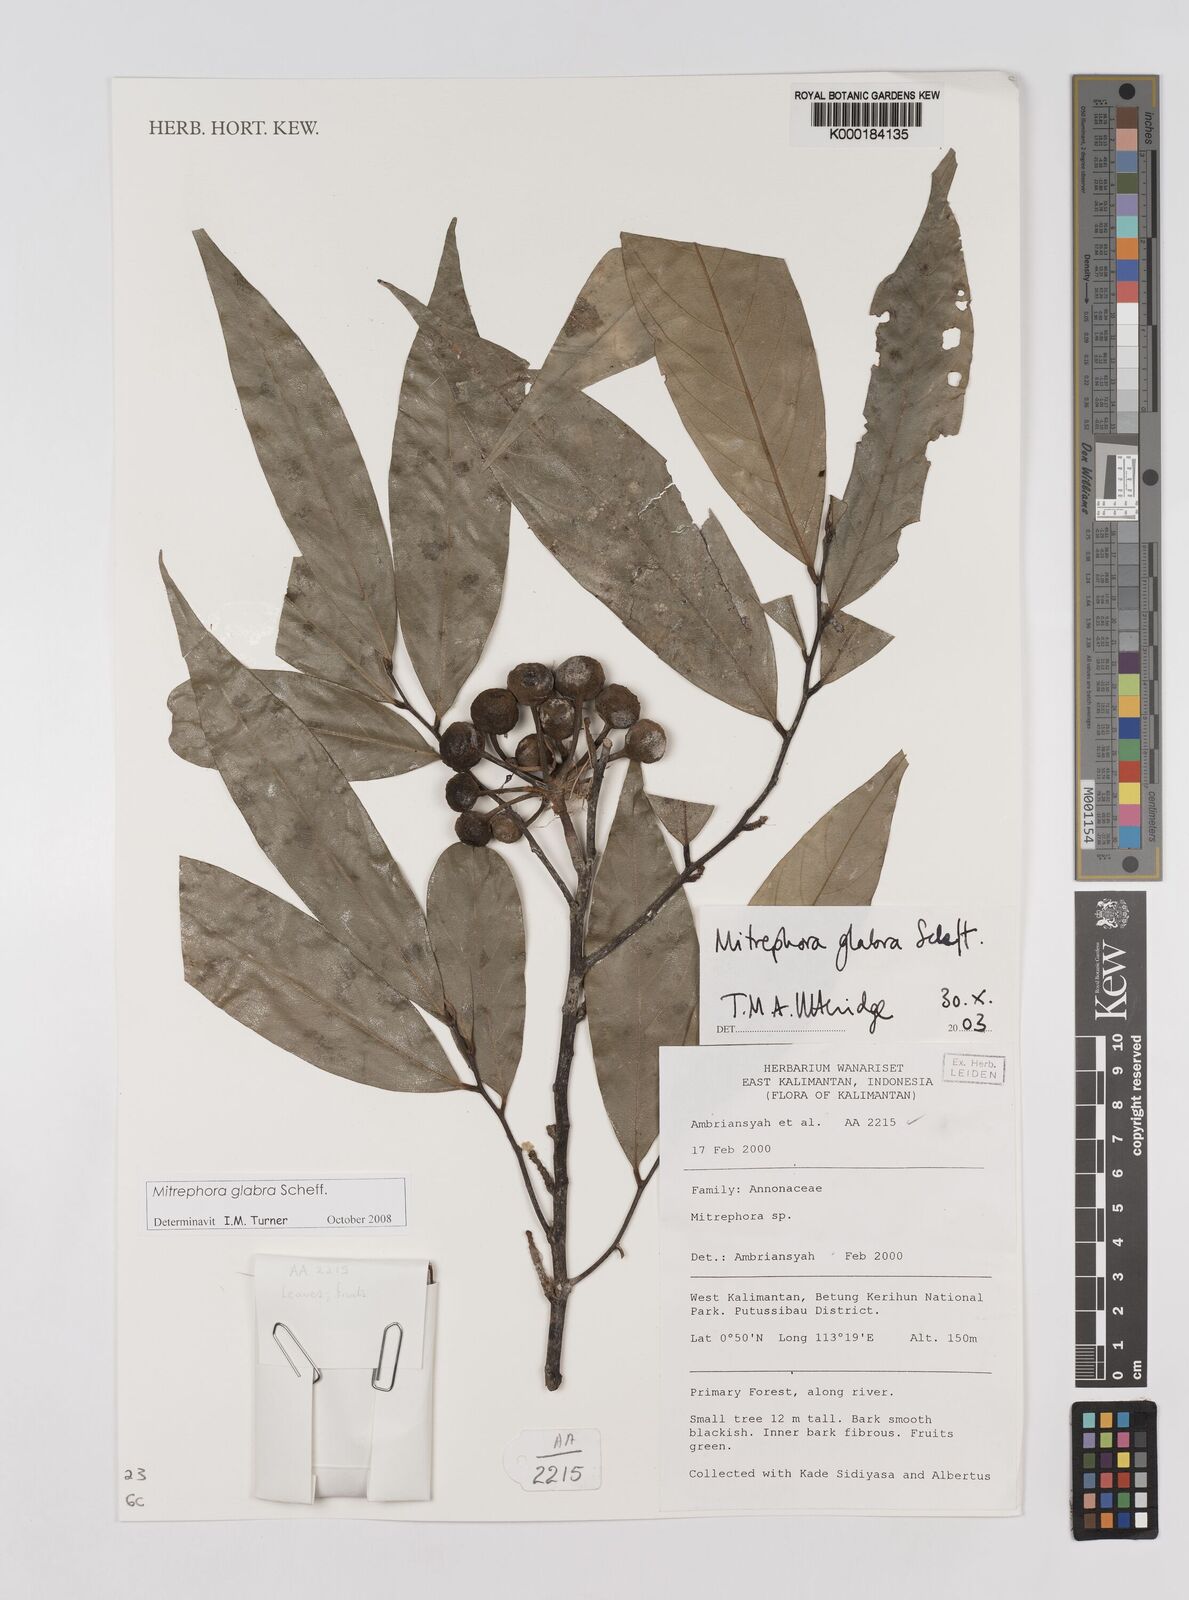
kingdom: Plantae
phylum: Tracheophyta
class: Magnoliopsida
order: Magnoliales
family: Annonaceae
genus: Mitrephora
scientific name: Mitrephora glabra
